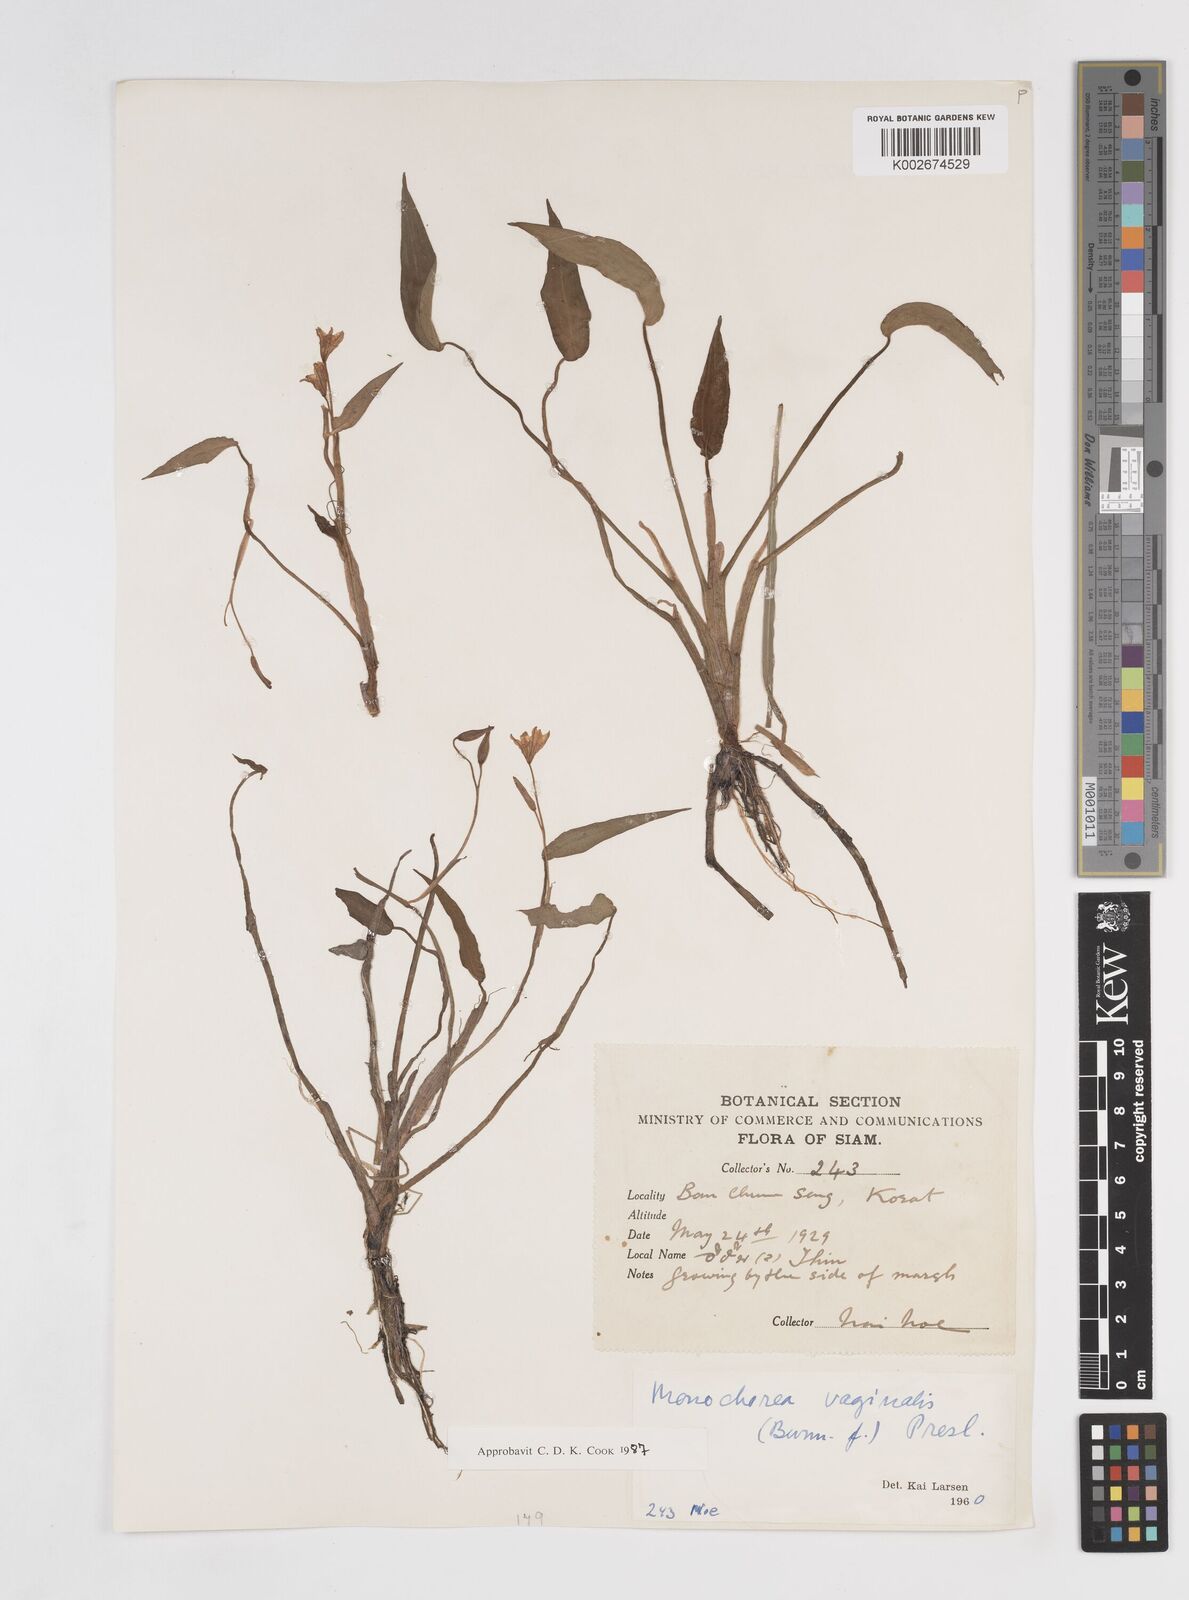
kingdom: Plantae
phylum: Tracheophyta
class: Liliopsida
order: Commelinales
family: Pontederiaceae
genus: Pontederia
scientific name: Pontederia vaginalis
